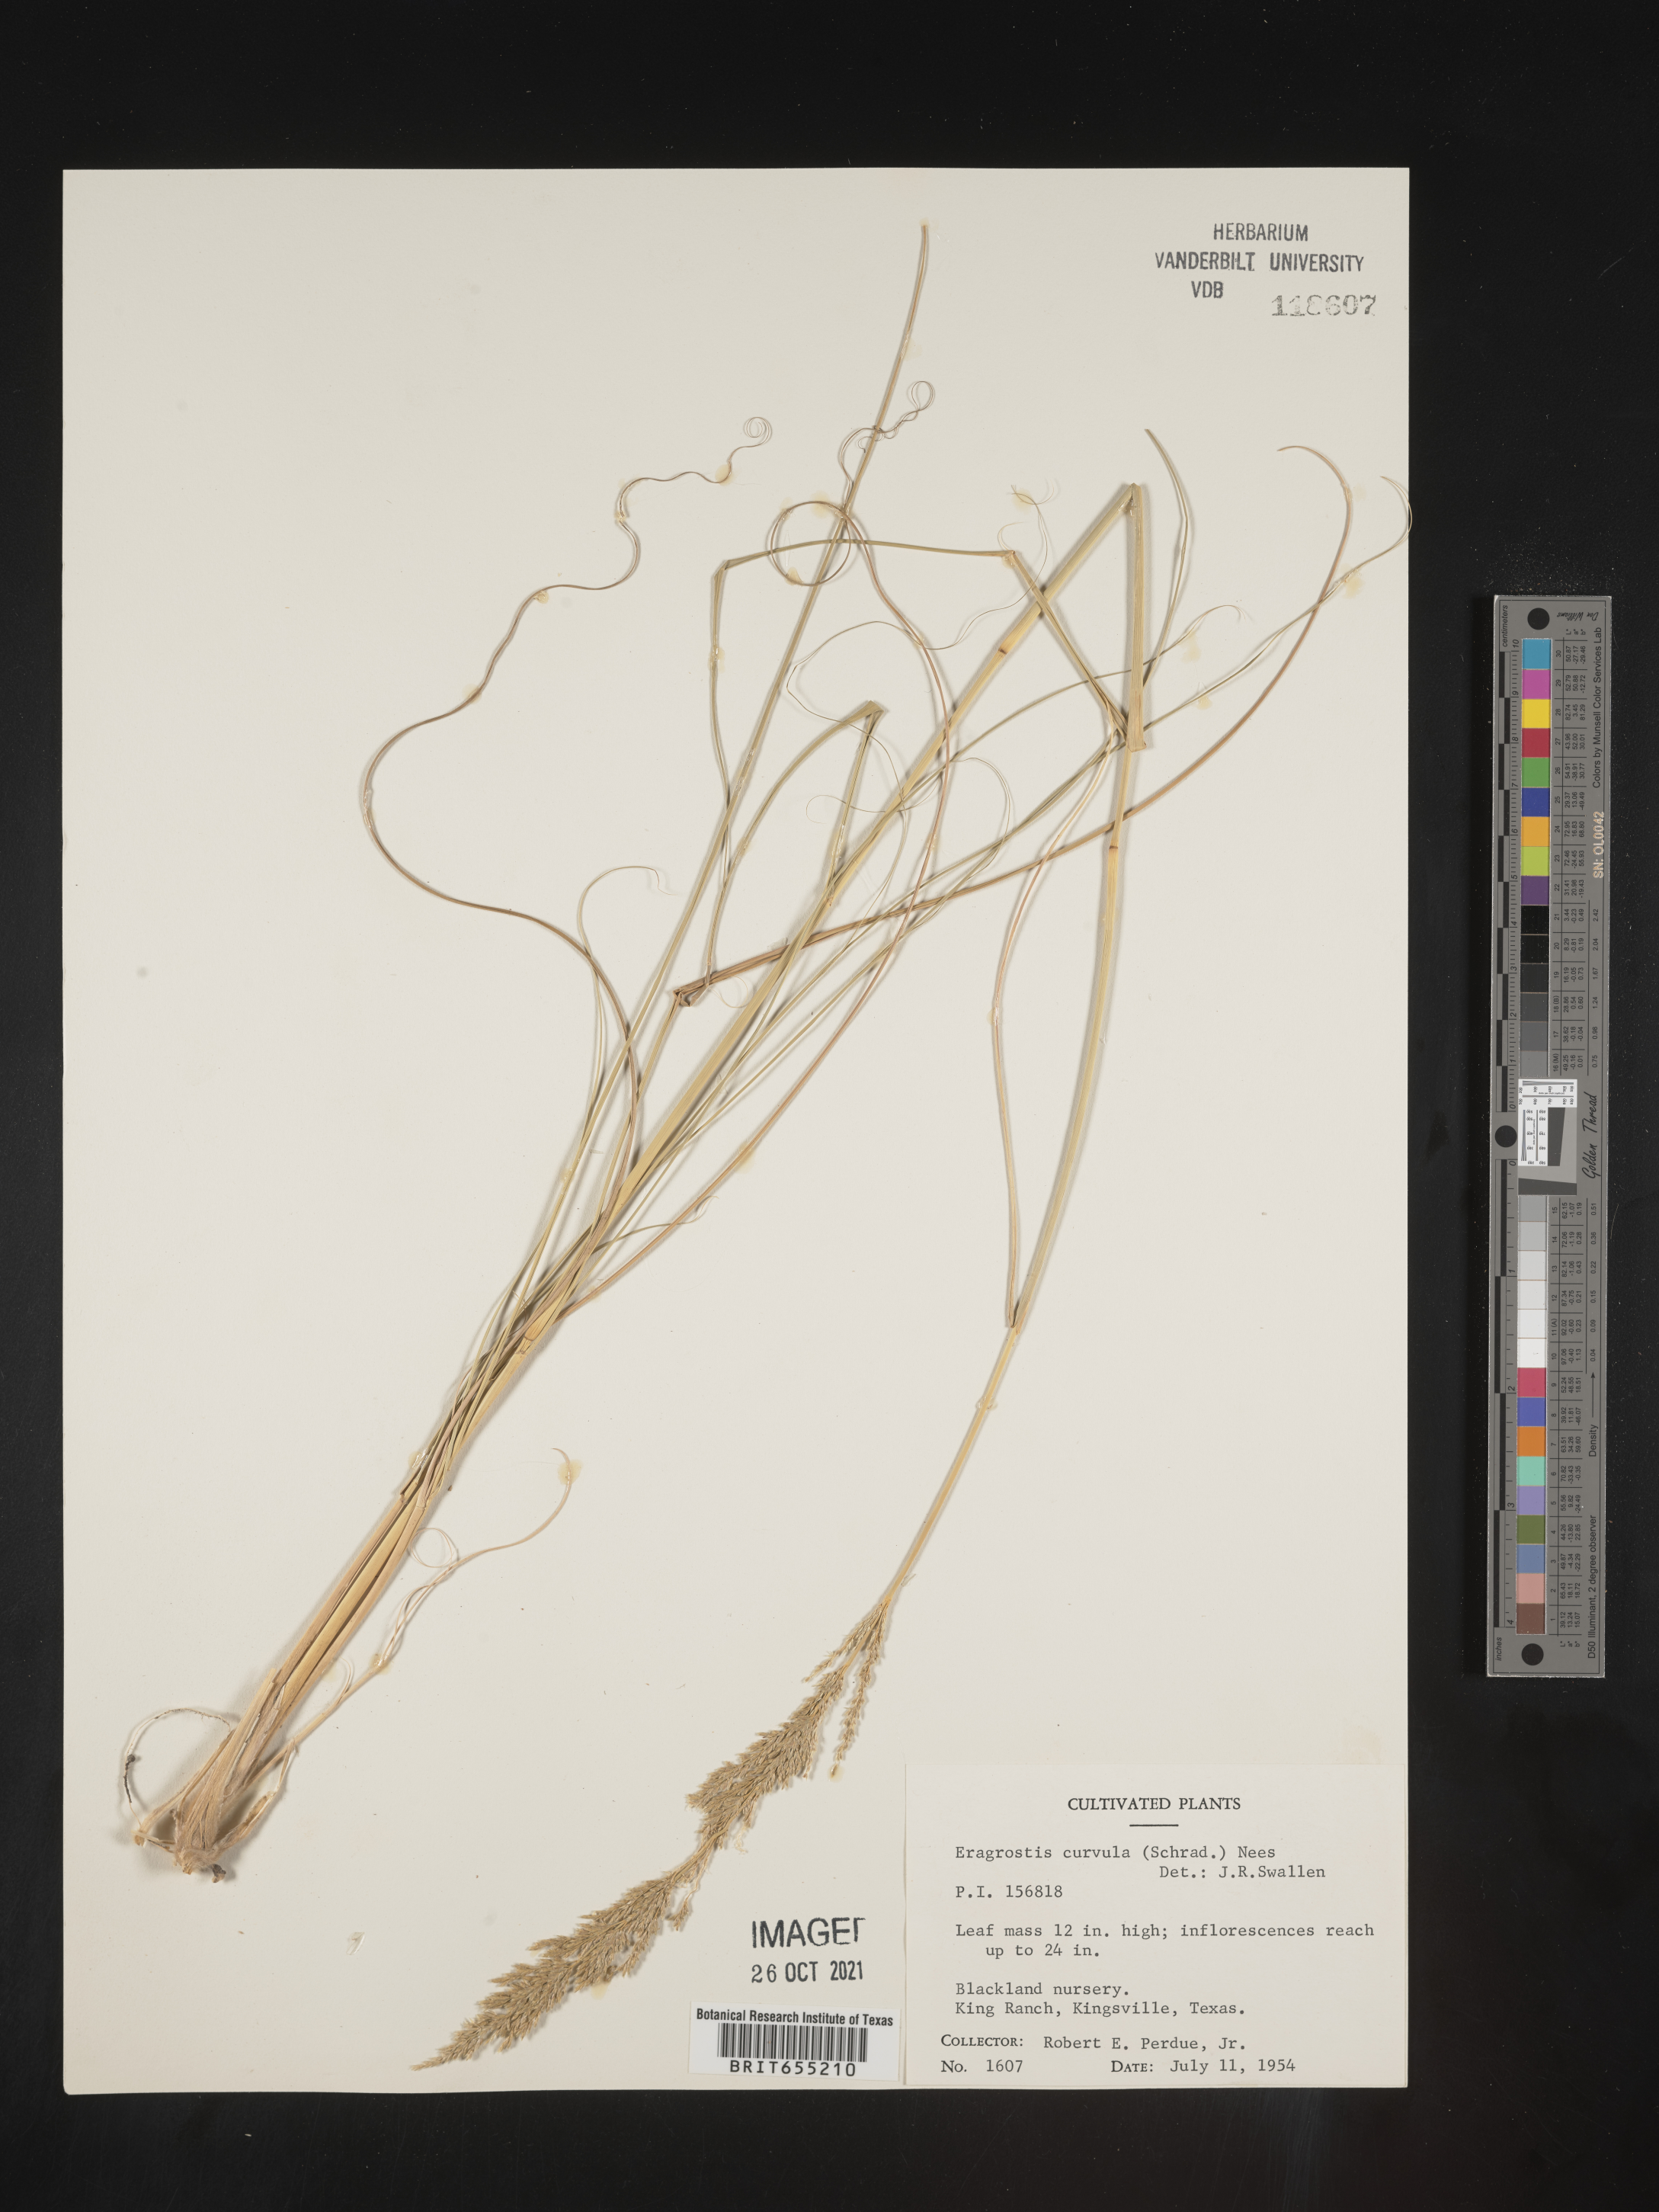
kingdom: Plantae
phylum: Tracheophyta
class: Liliopsida
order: Poales
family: Poaceae
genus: Eragrostis
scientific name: Eragrostis
